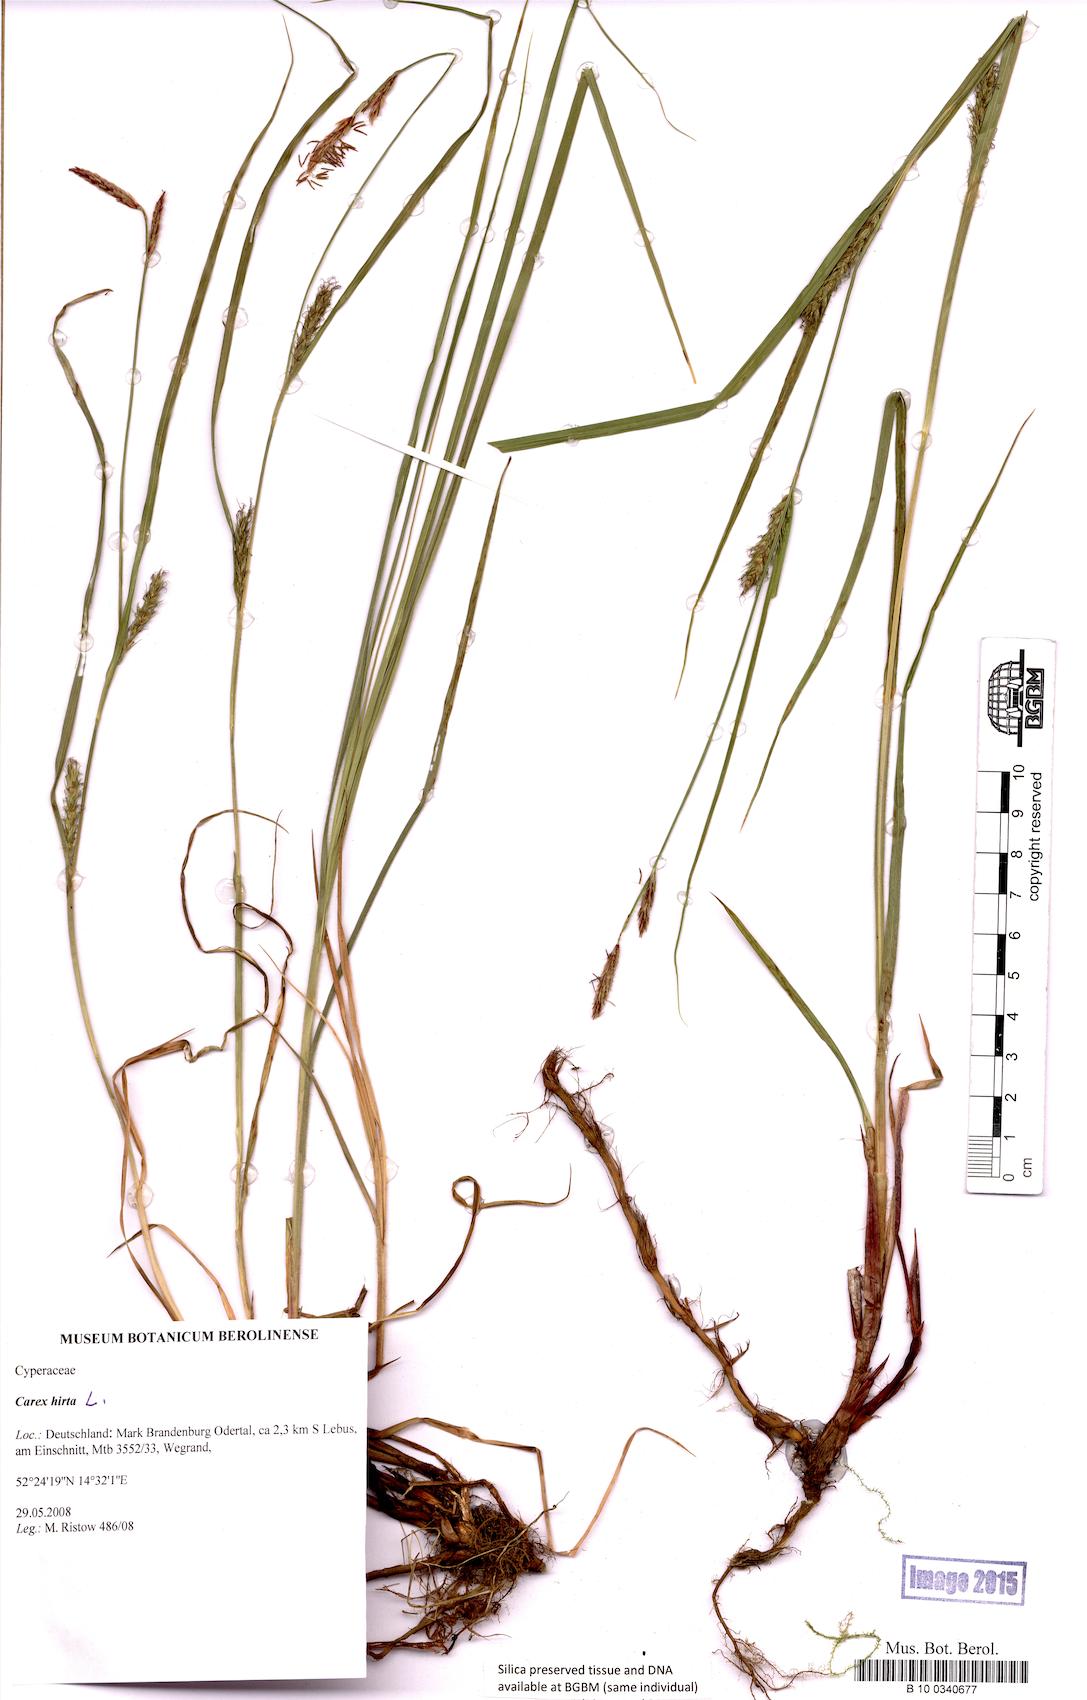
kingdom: Plantae
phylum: Tracheophyta
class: Liliopsida
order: Poales
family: Cyperaceae
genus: Carex
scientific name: Carex hirta
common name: Hairy sedge
